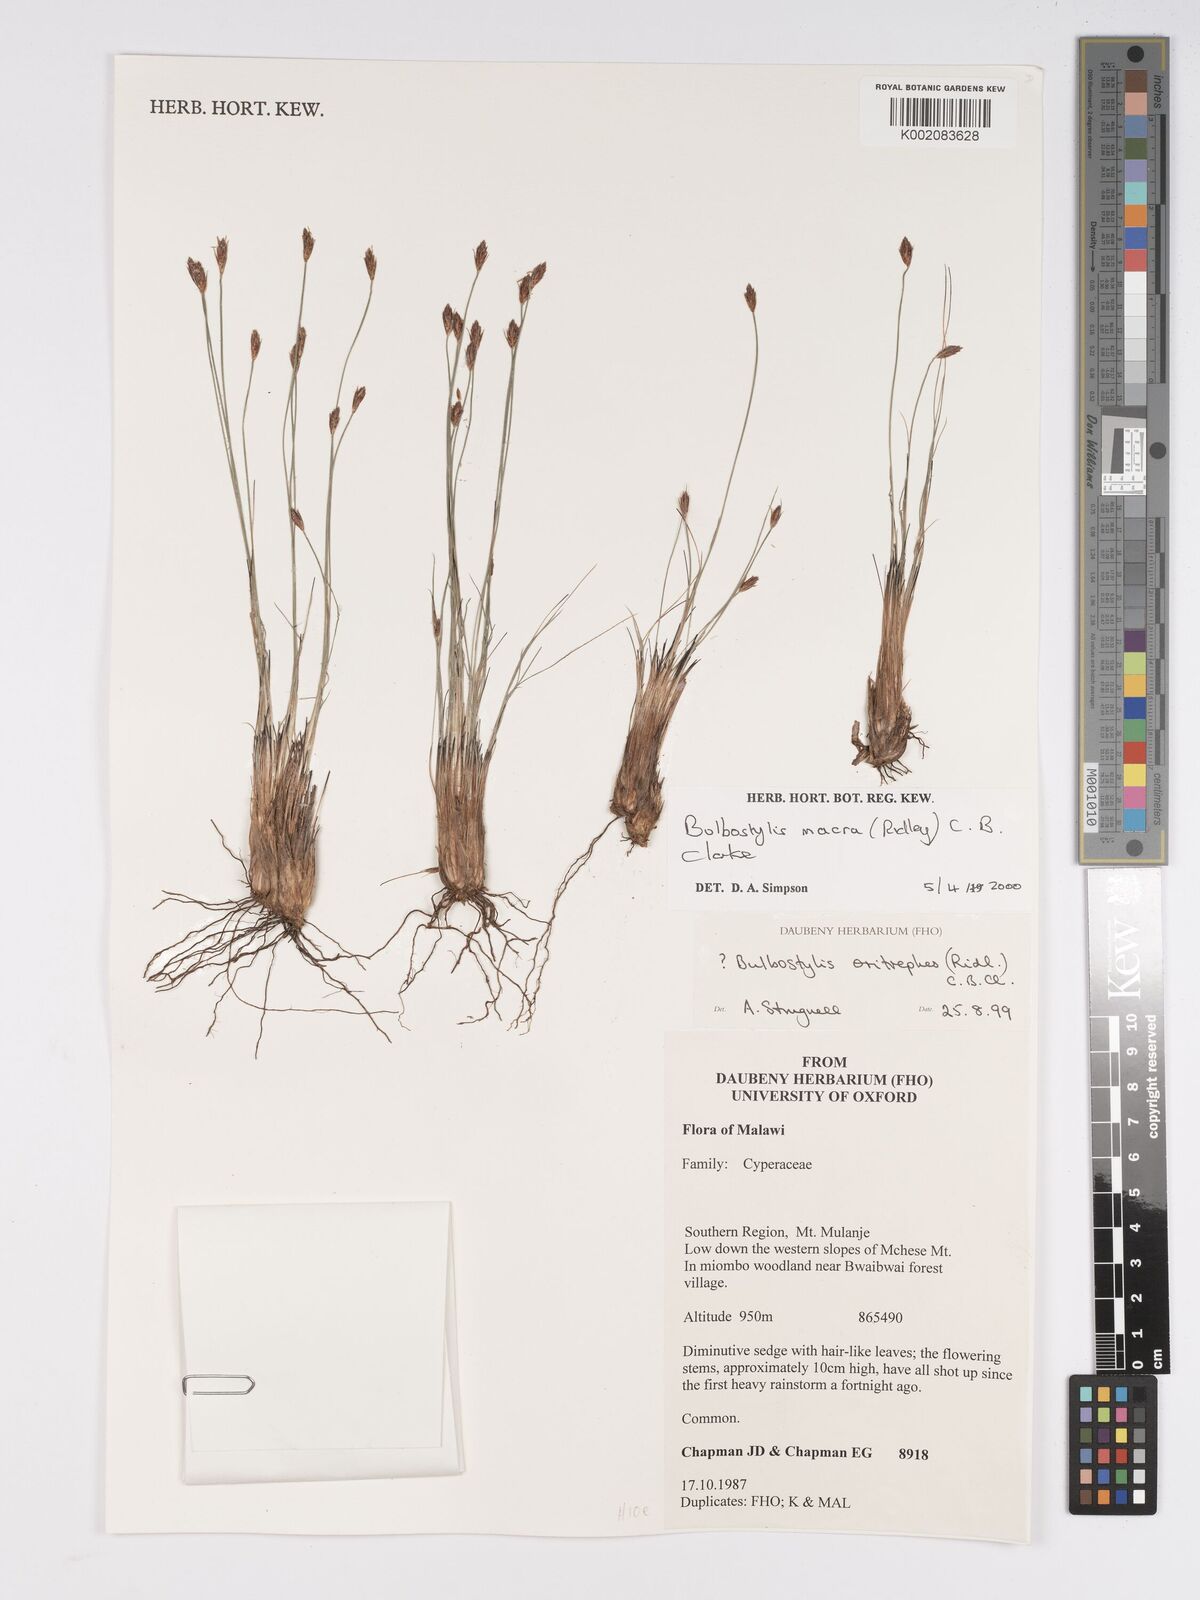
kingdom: Plantae
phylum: Tracheophyta
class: Liliopsida
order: Poales
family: Cyperaceae
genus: Bulbostylis
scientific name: Bulbostylis macra
